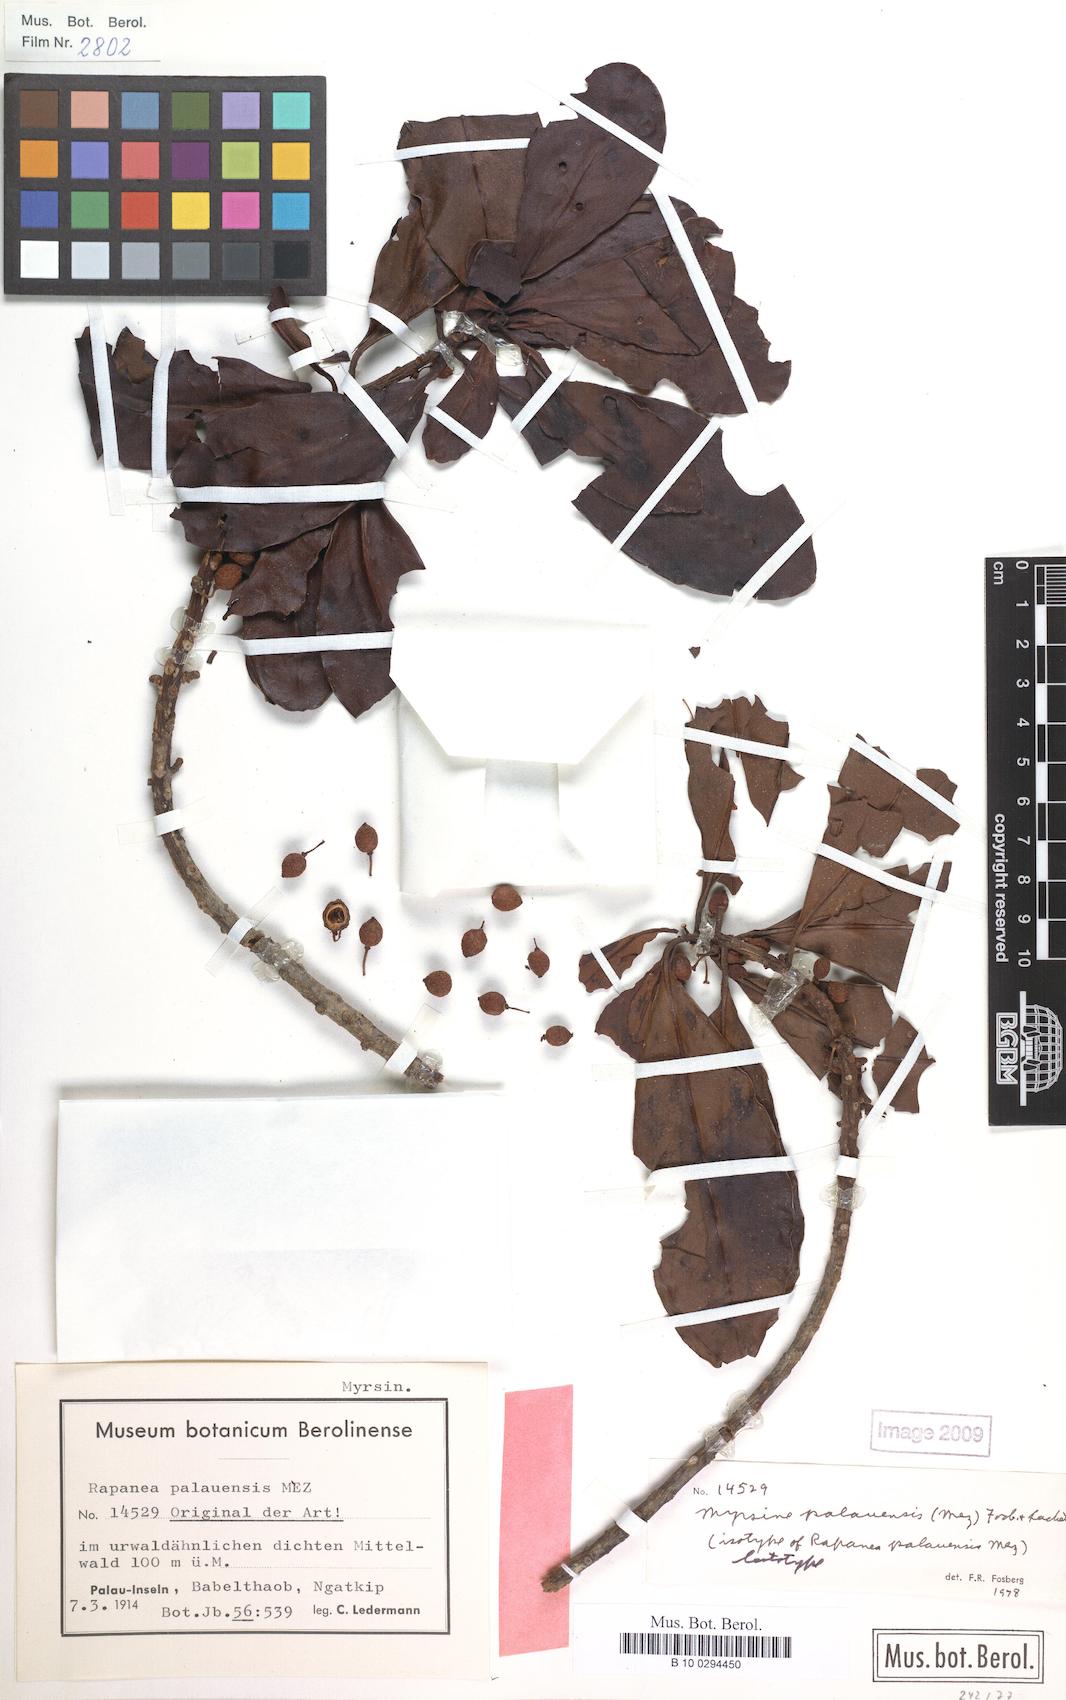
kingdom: Plantae
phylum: Tracheophyta
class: Magnoliopsida
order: Ericales
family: Primulaceae
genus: Myrsine
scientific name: Myrsine palauensis
